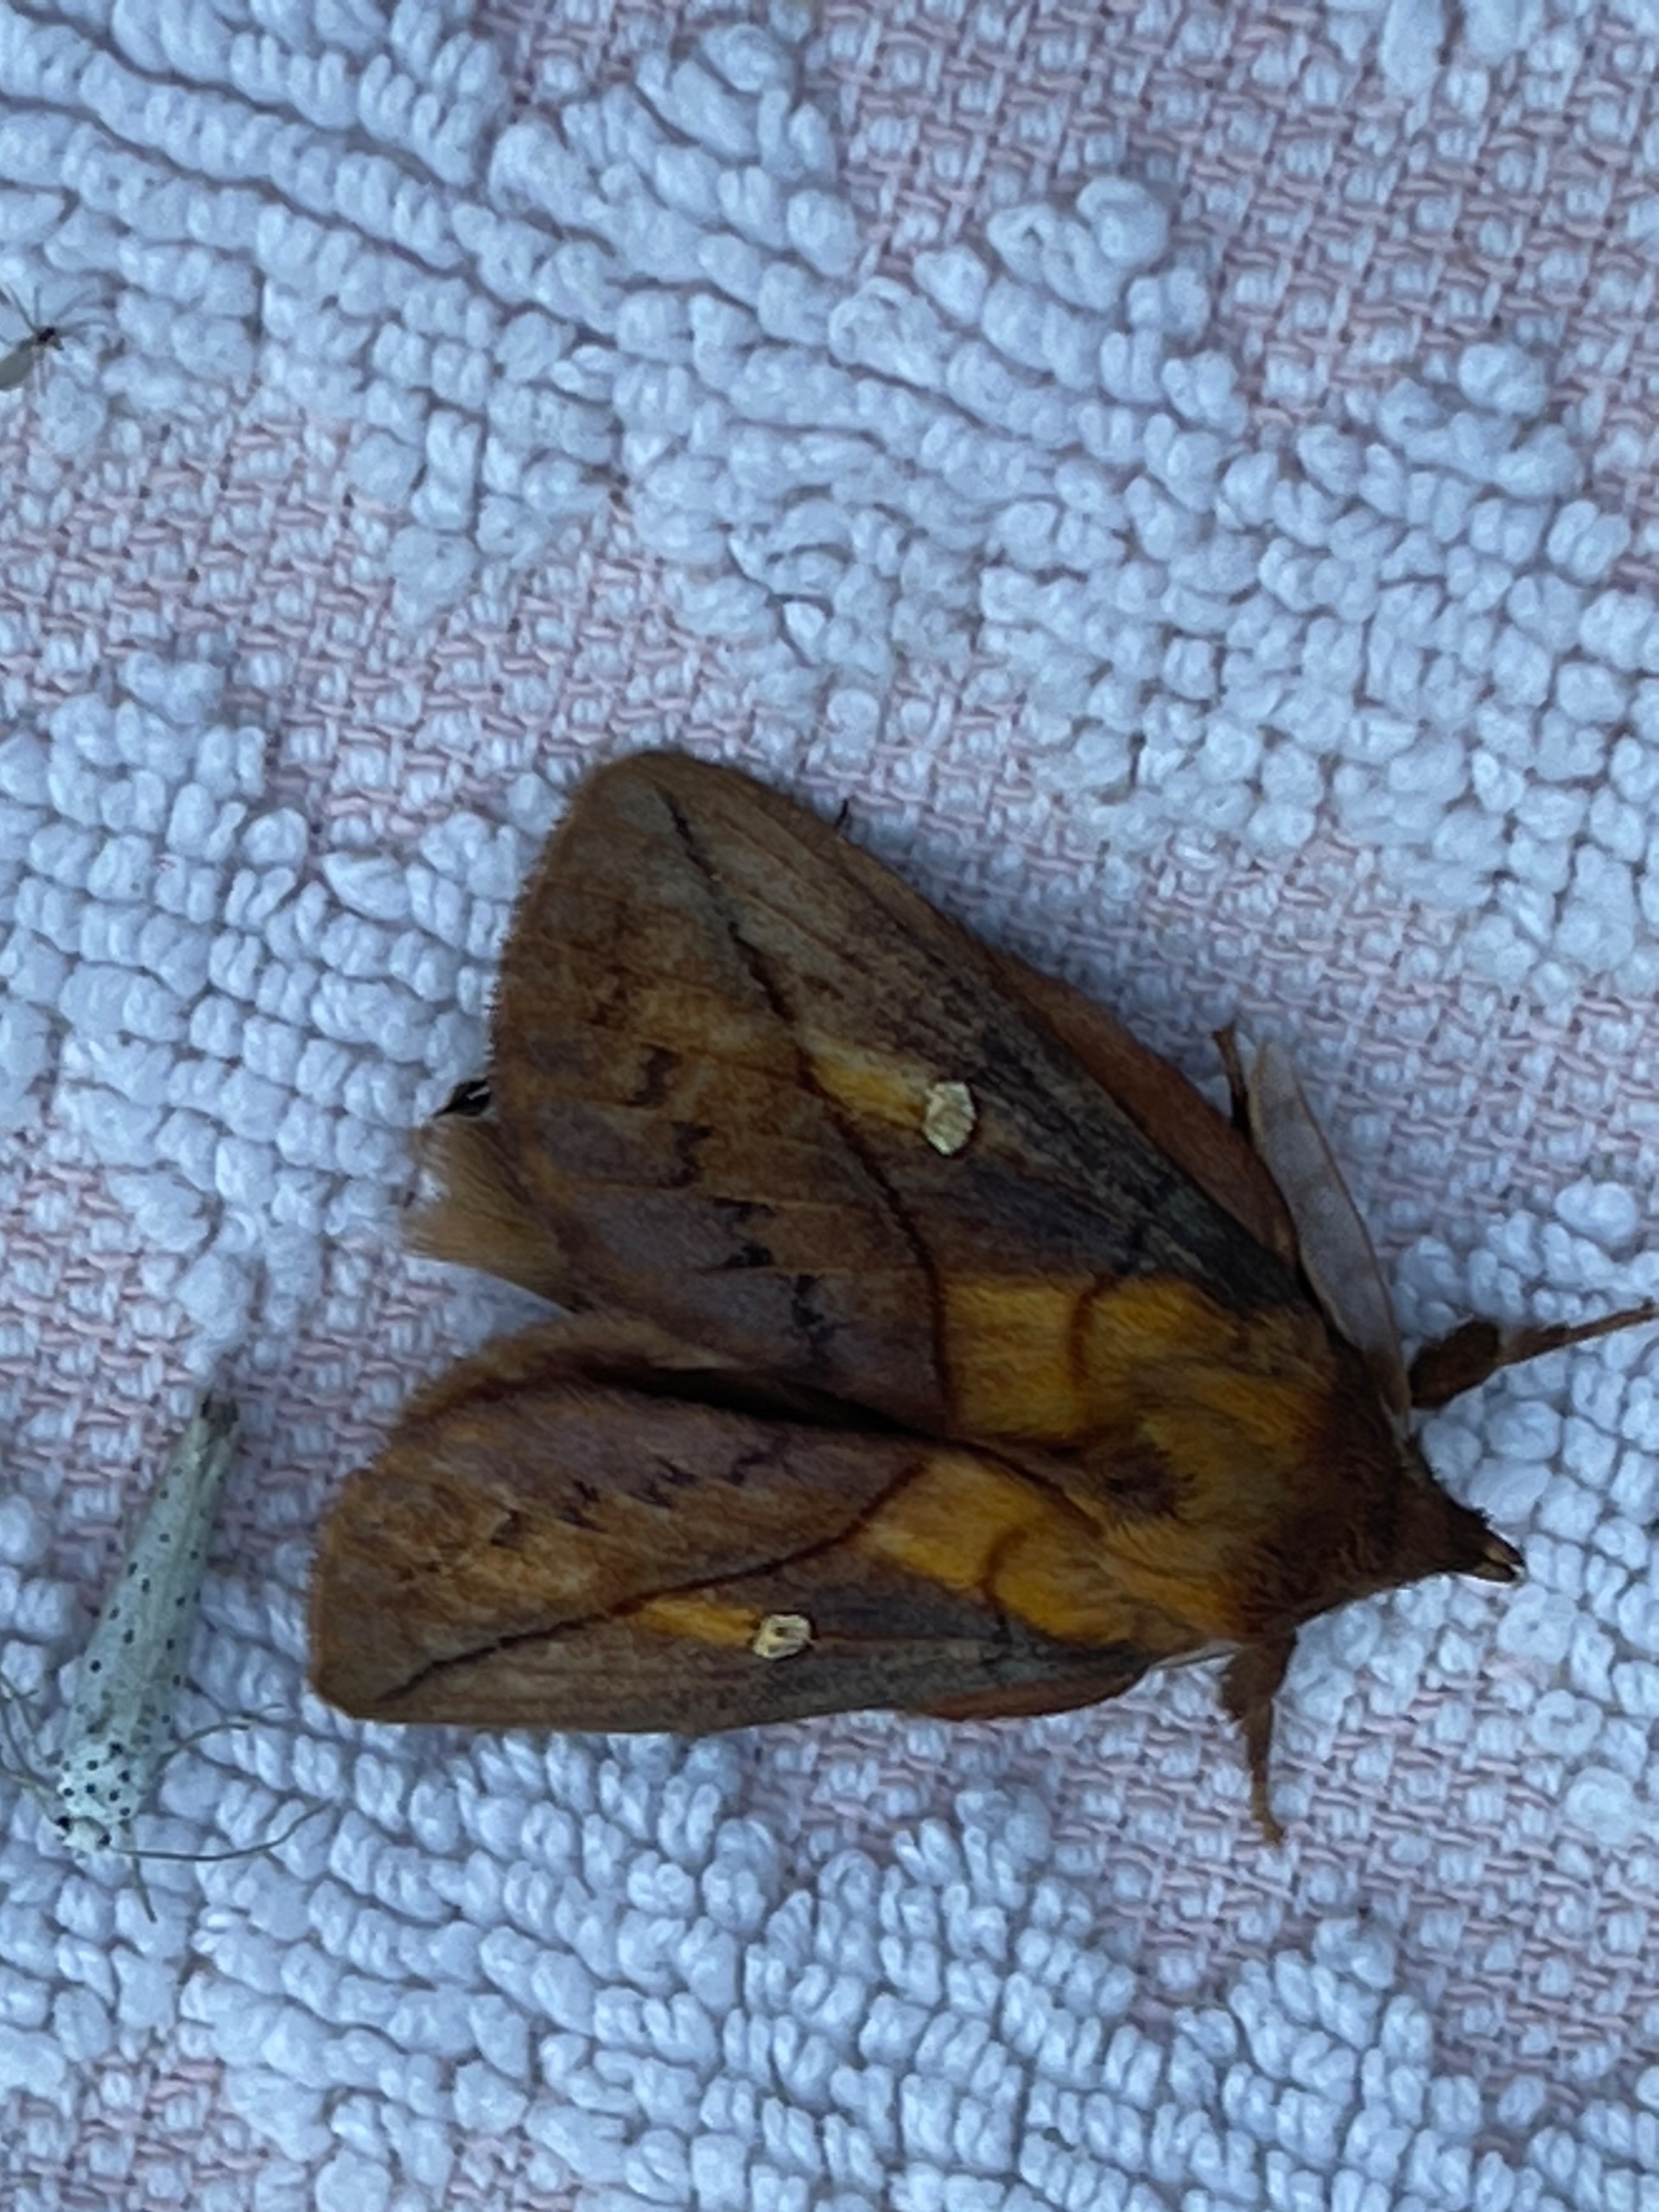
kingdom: Animalia
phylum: Arthropoda
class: Insecta
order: Lepidoptera
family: Lasiocampidae
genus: Euthrix
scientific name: Euthrix potatoria
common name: Græsspinder
